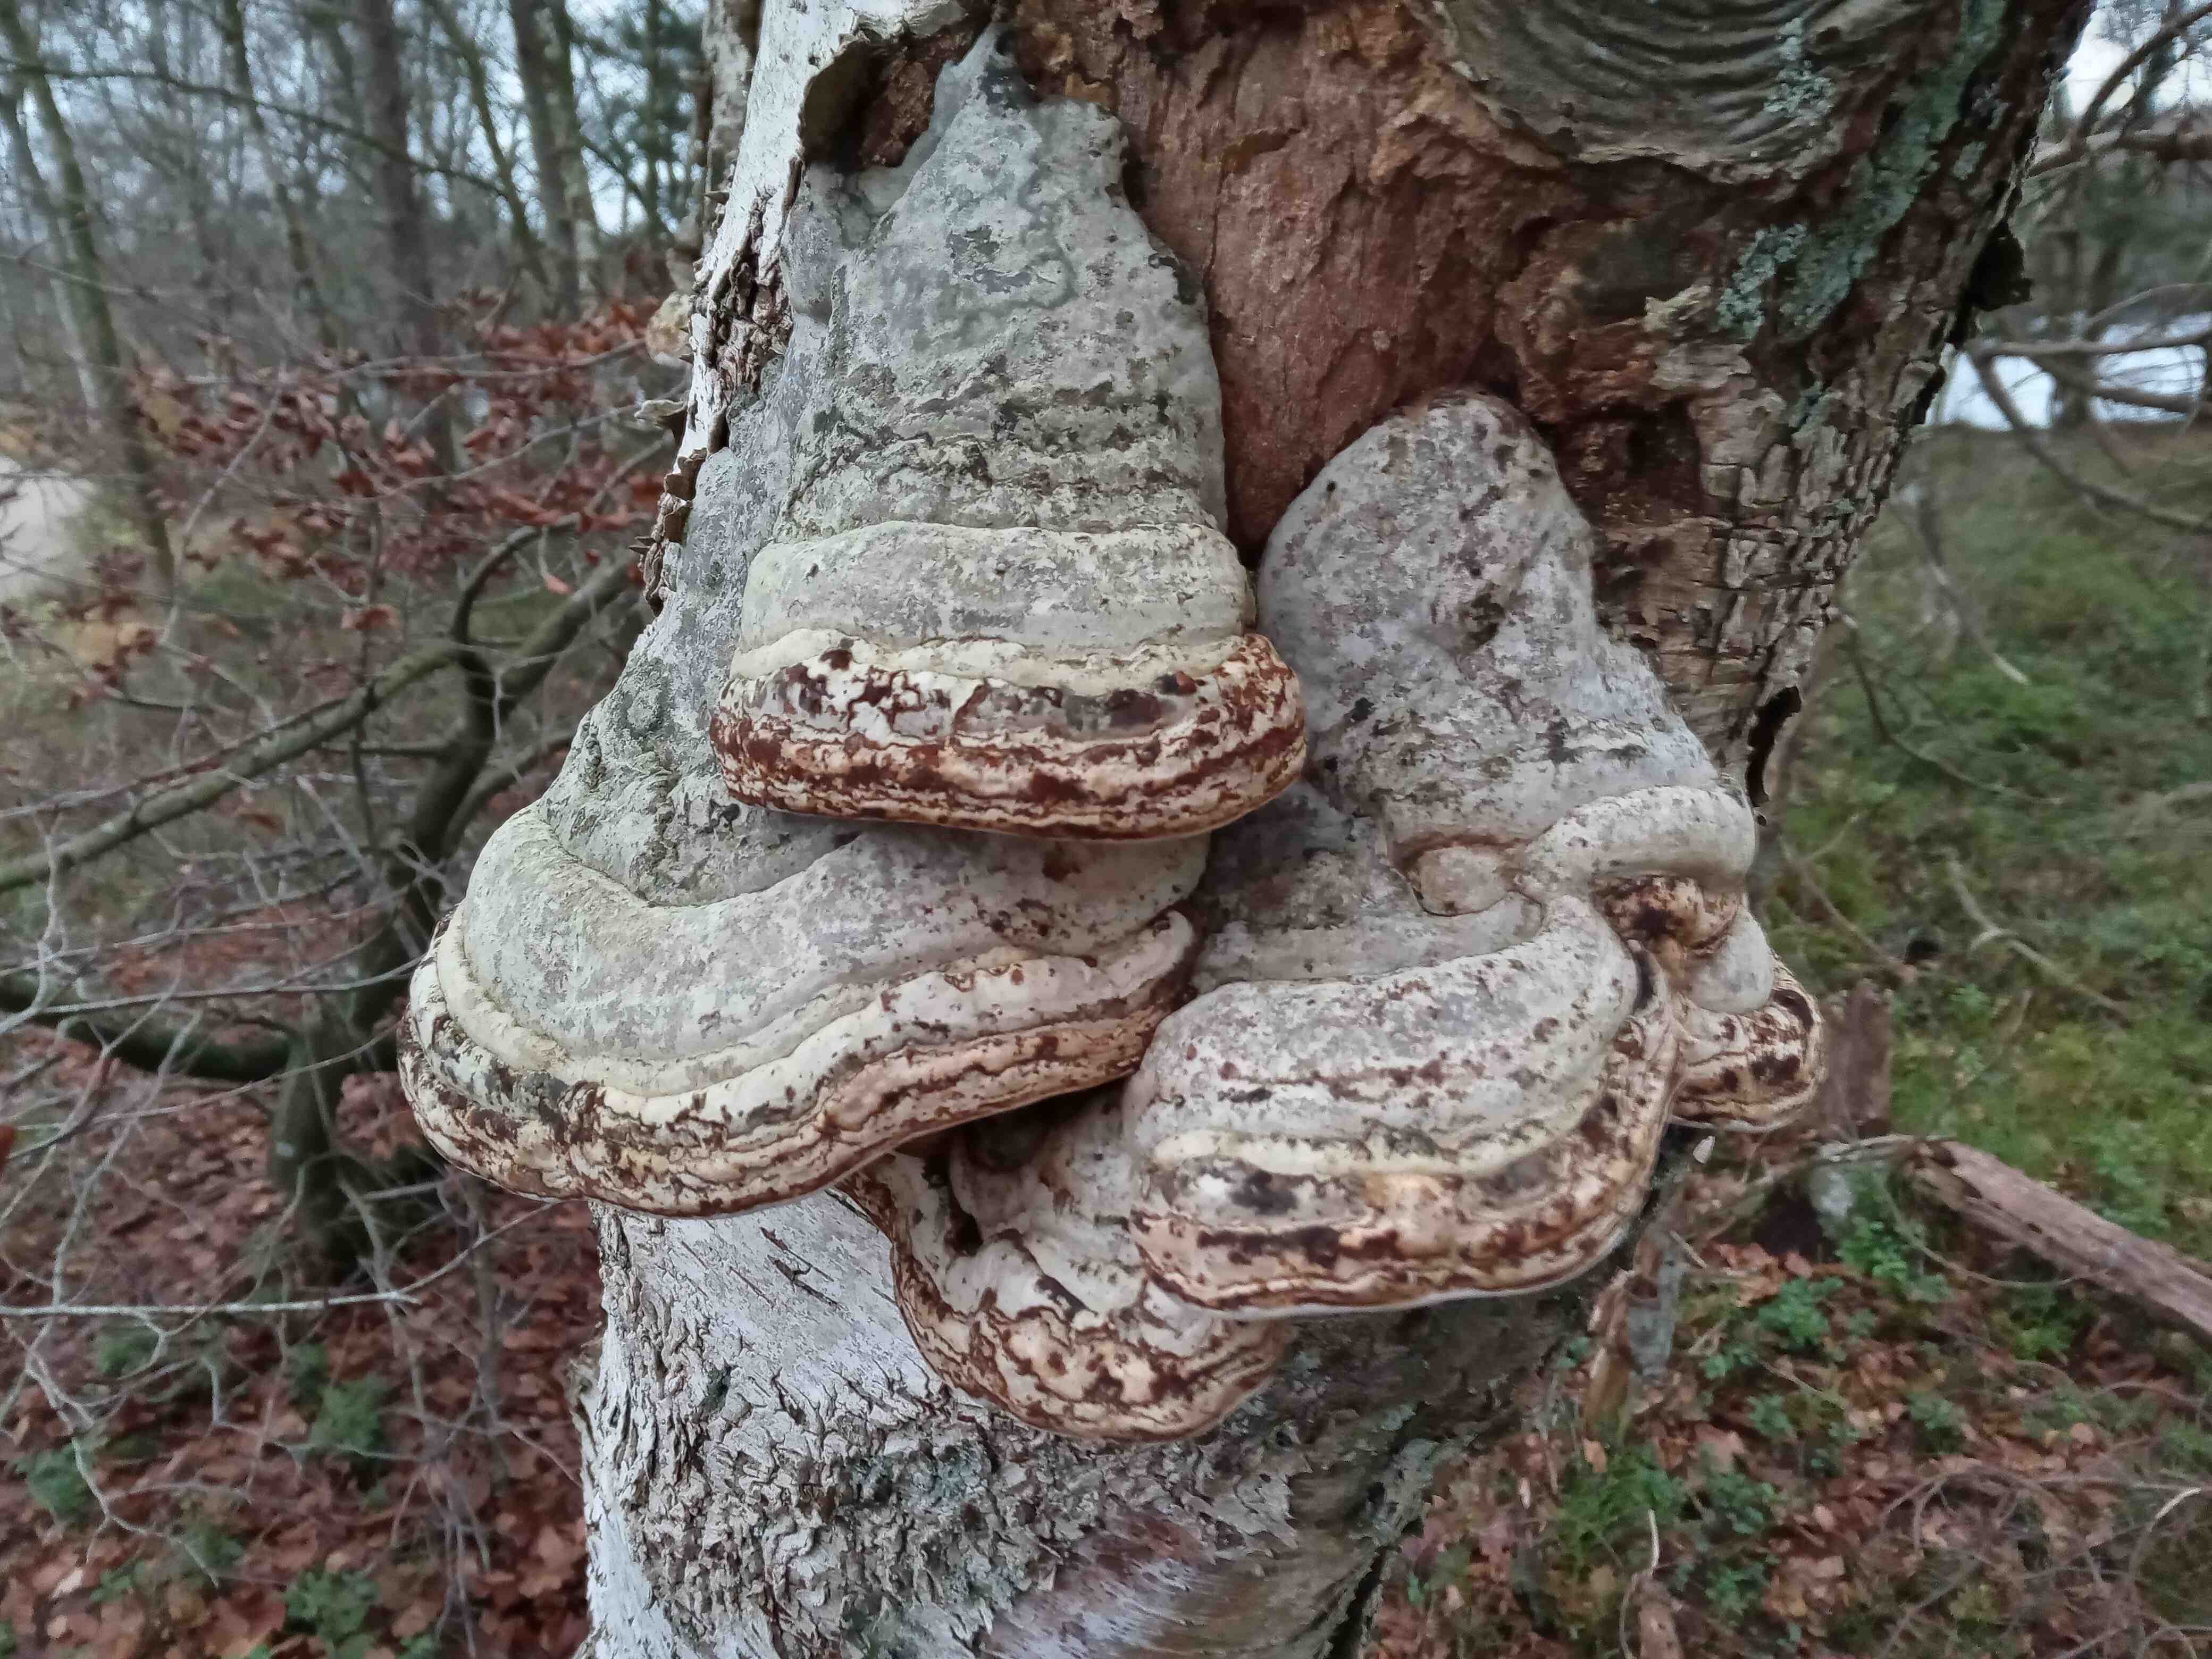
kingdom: Fungi
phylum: Basidiomycota
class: Agaricomycetes
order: Polyporales
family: Polyporaceae
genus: Fomes
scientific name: Fomes fomentarius
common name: tøndersvamp
